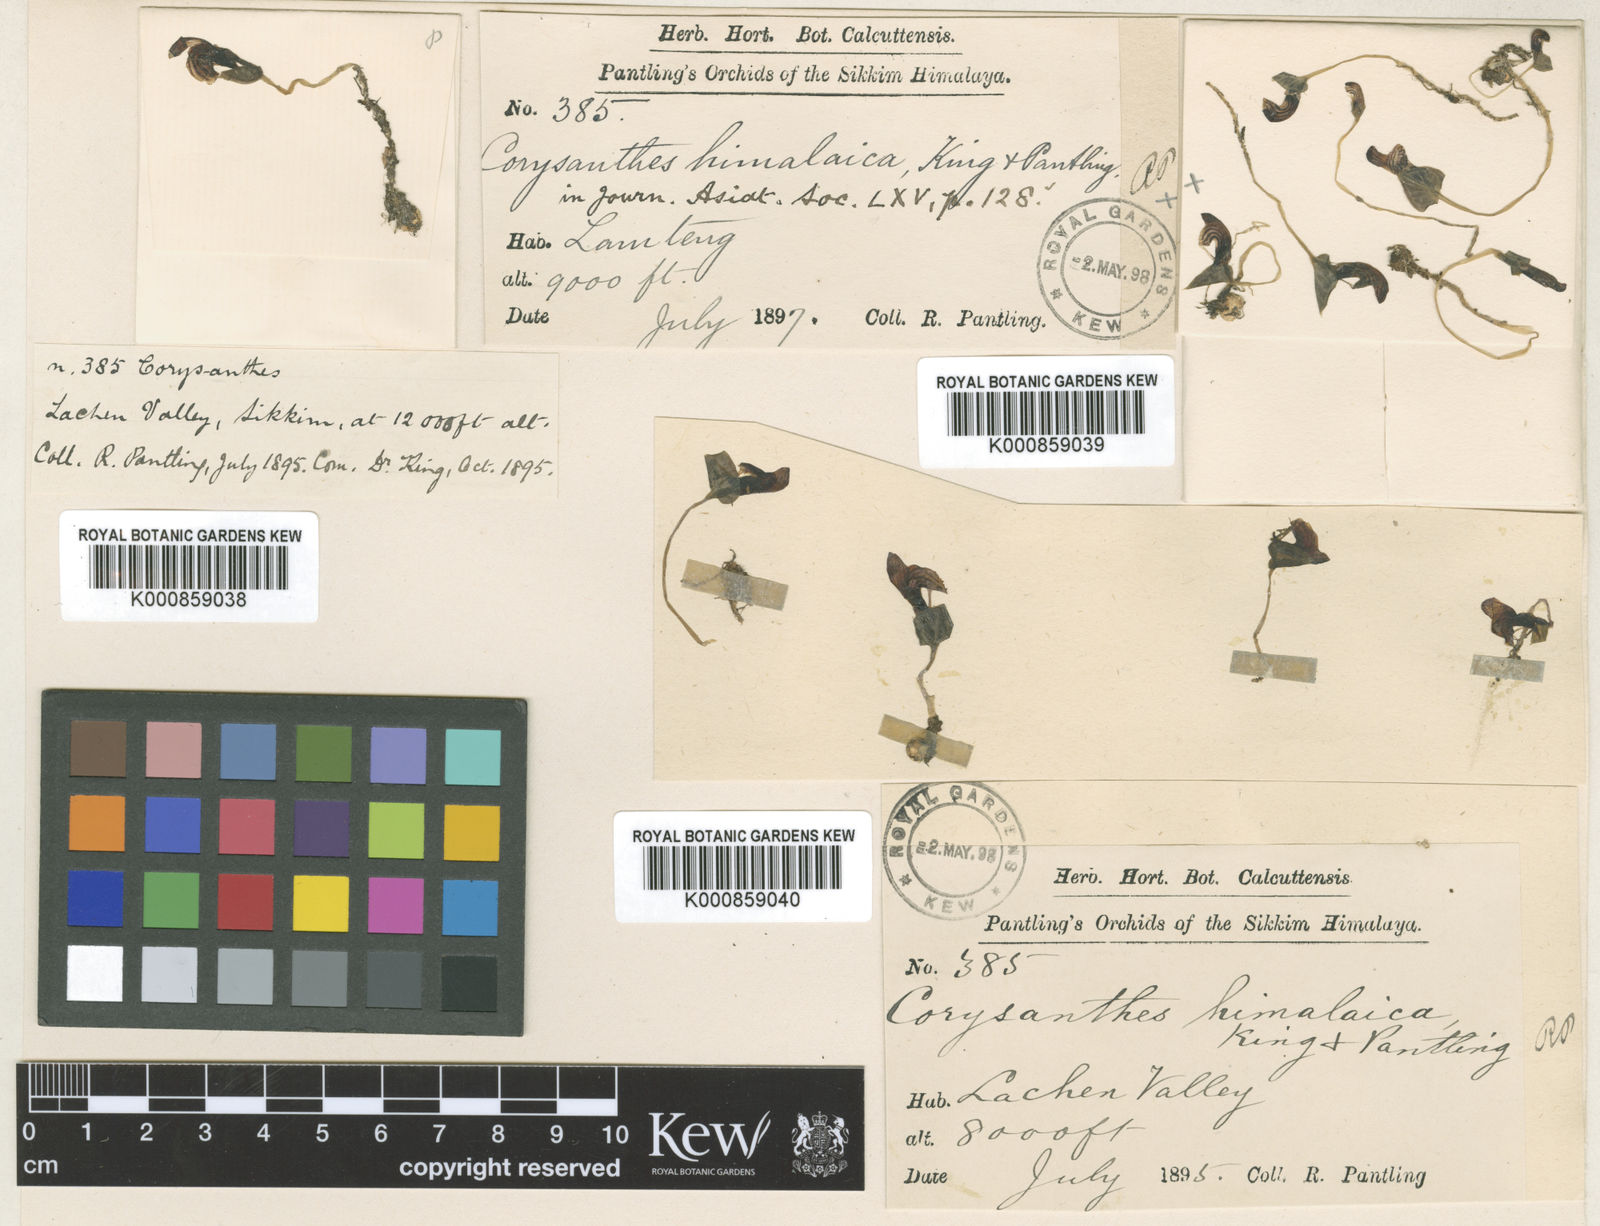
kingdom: Plantae
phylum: Tracheophyta
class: Liliopsida
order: Asparagales
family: Orchidaceae
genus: Corybas
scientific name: Corybas himalaicus
